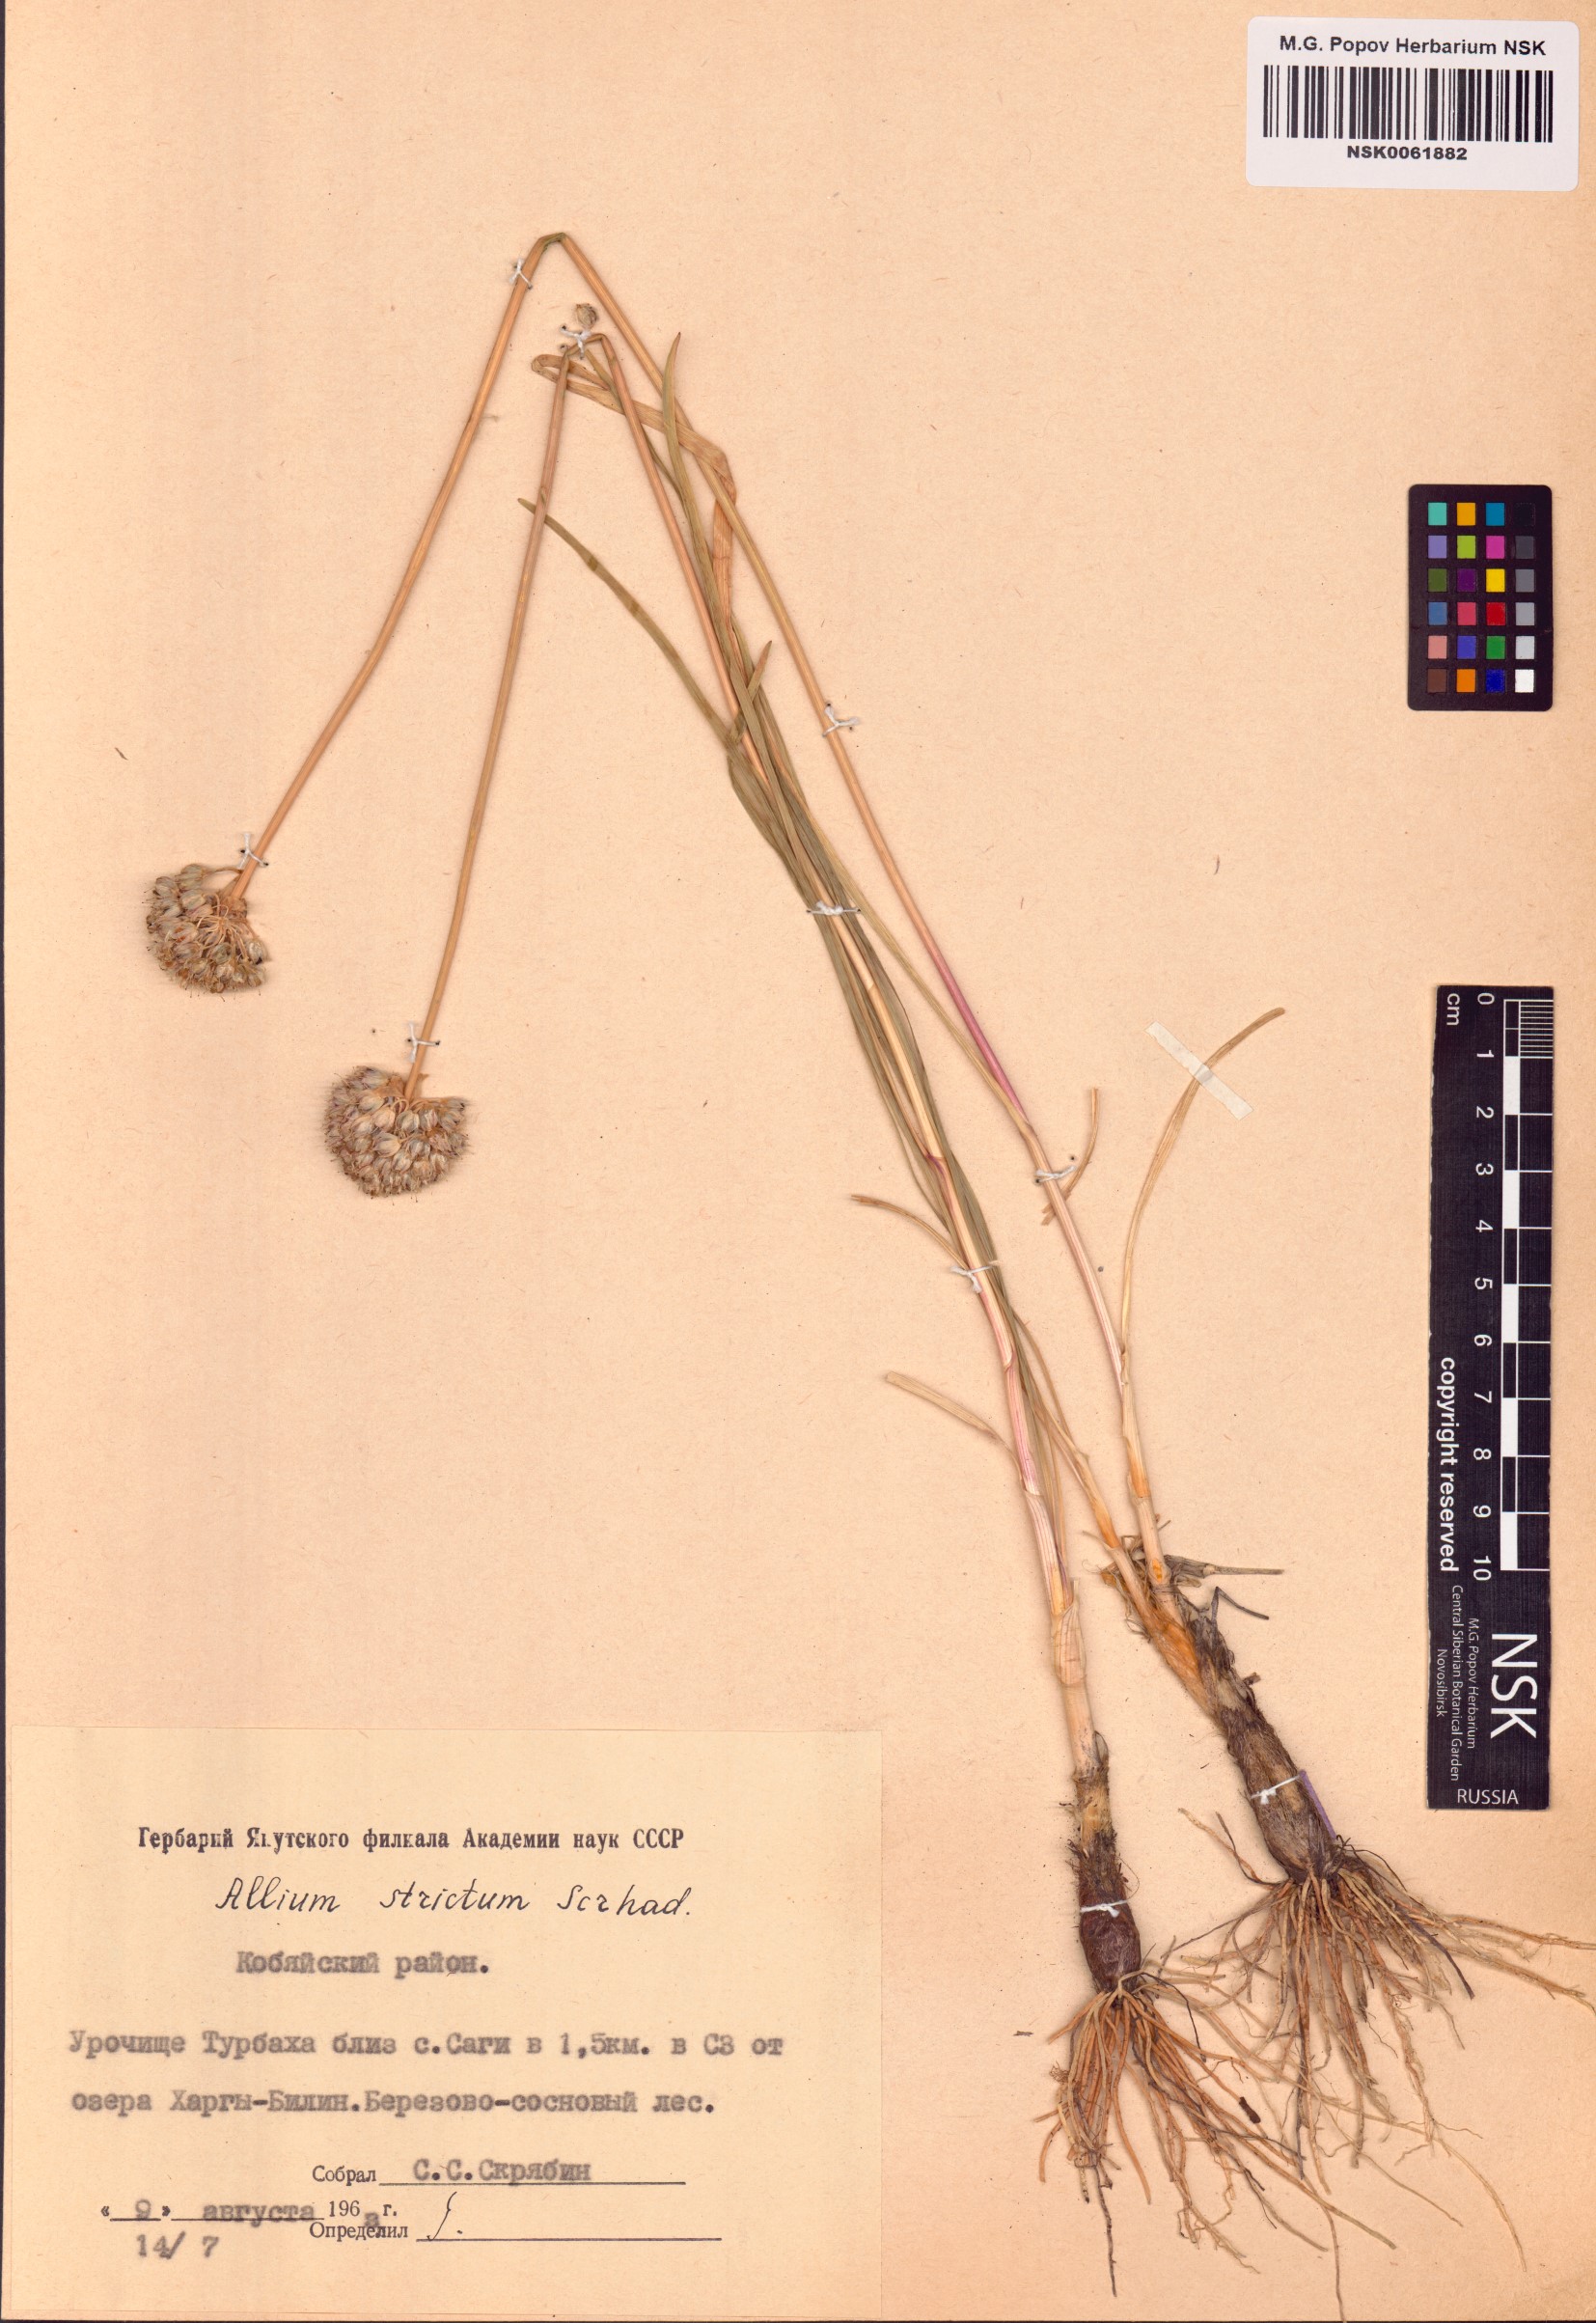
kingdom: Plantae
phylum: Tracheophyta
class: Liliopsida
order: Asparagales
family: Amaryllidaceae
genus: Allium
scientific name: Allium strictum
